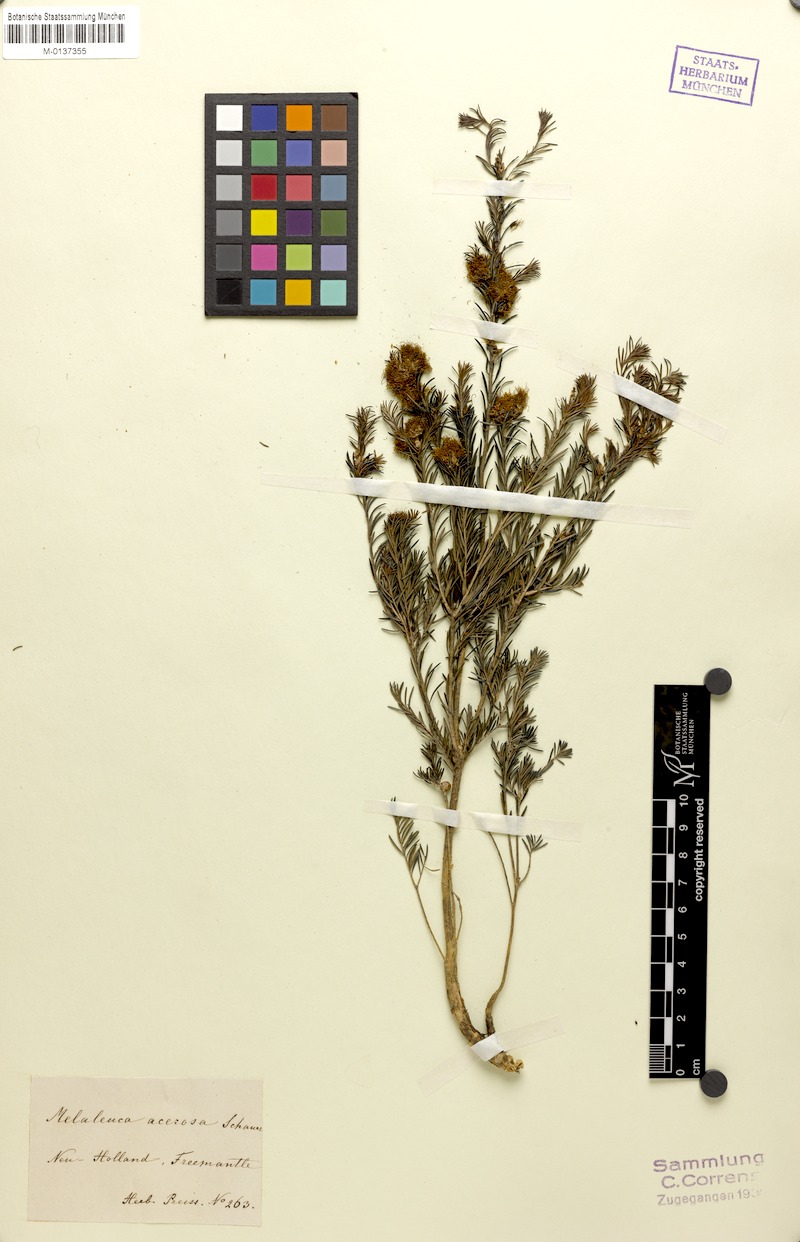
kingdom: Plantae
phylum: Tracheophyta
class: Magnoliopsida
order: Myrtales
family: Myrtaceae
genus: Melaleuca
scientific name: Melaleuca systena
